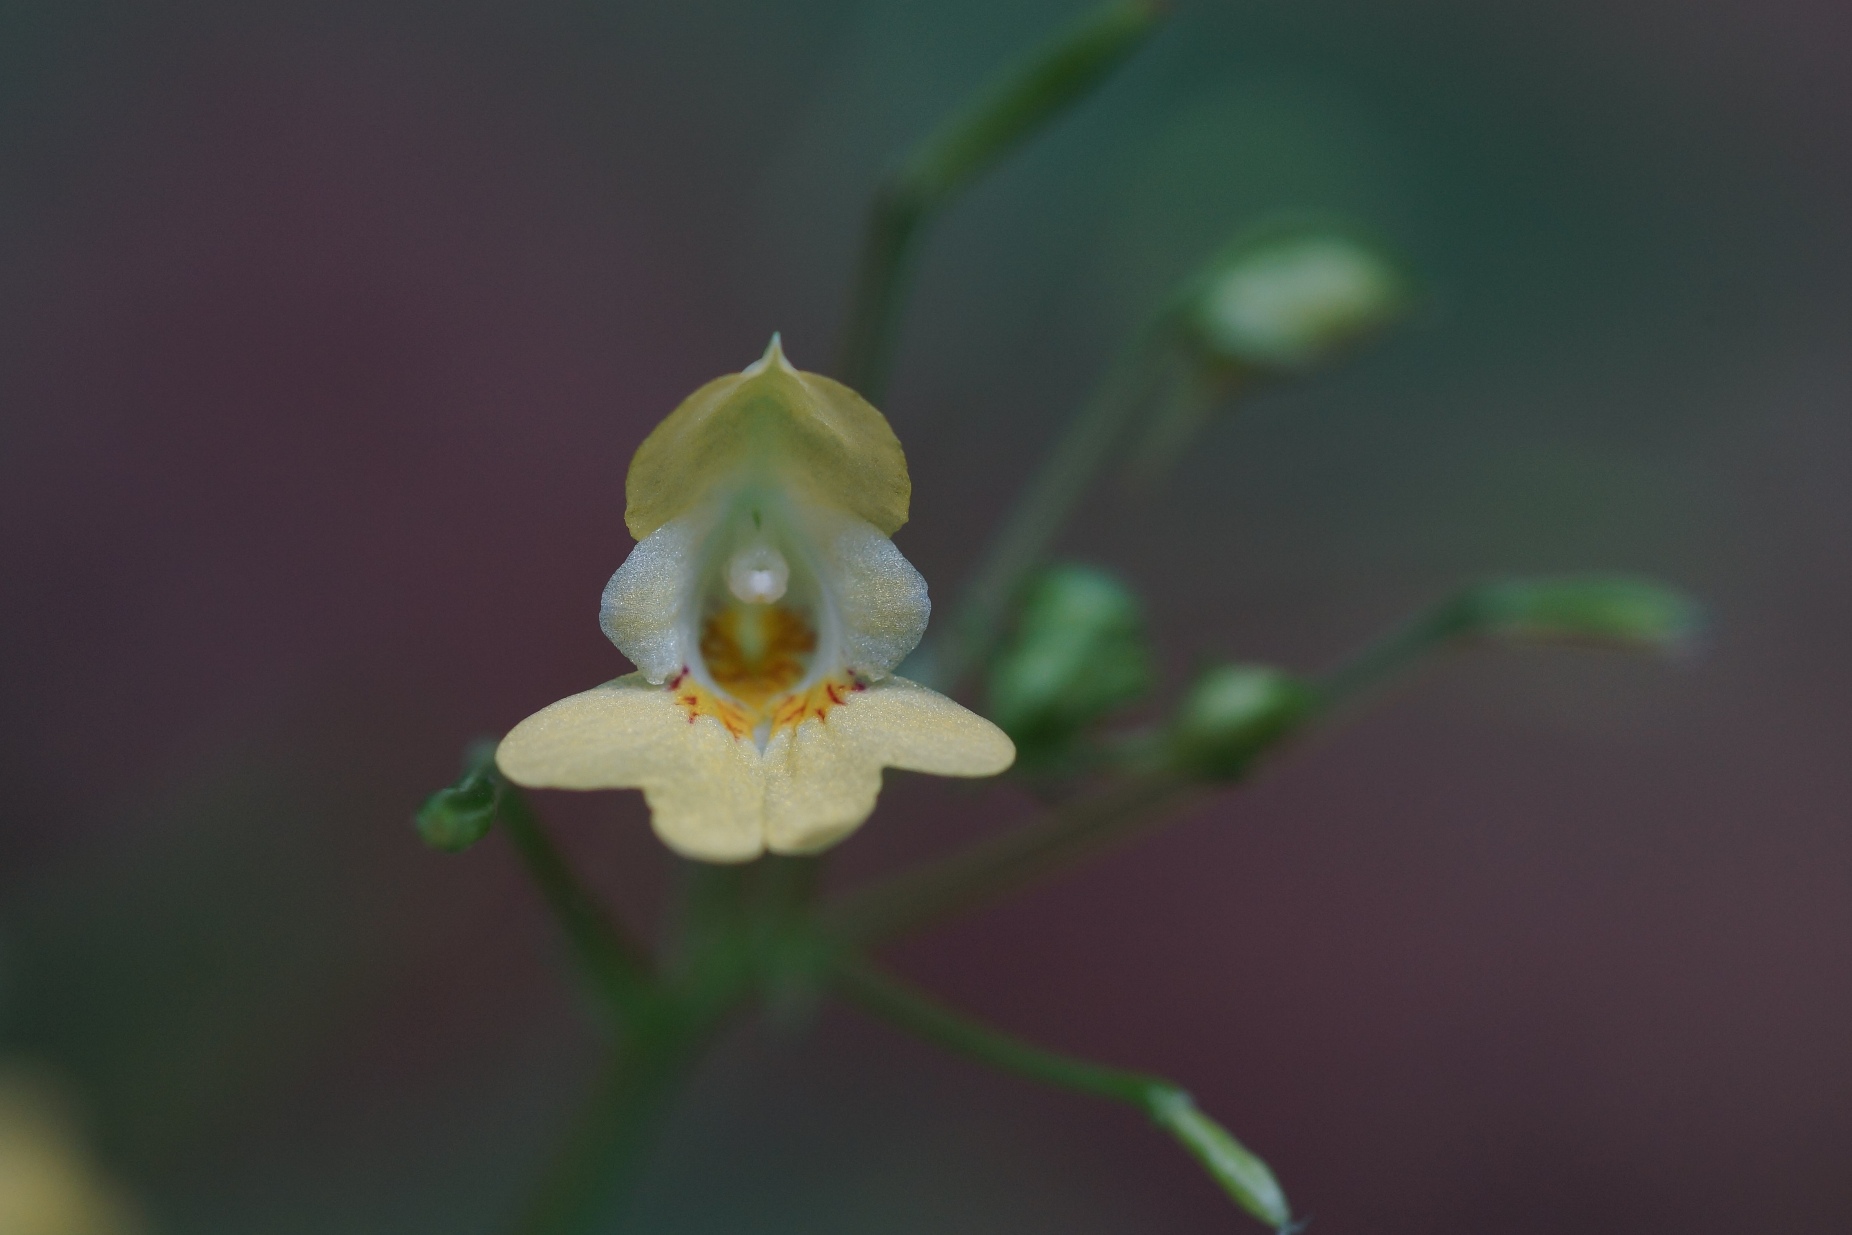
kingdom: Plantae
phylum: Tracheophyta
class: Magnoliopsida
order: Ericales
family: Balsaminaceae
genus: Impatiens
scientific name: Impatiens parviflora
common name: Småblomstret balsamin
